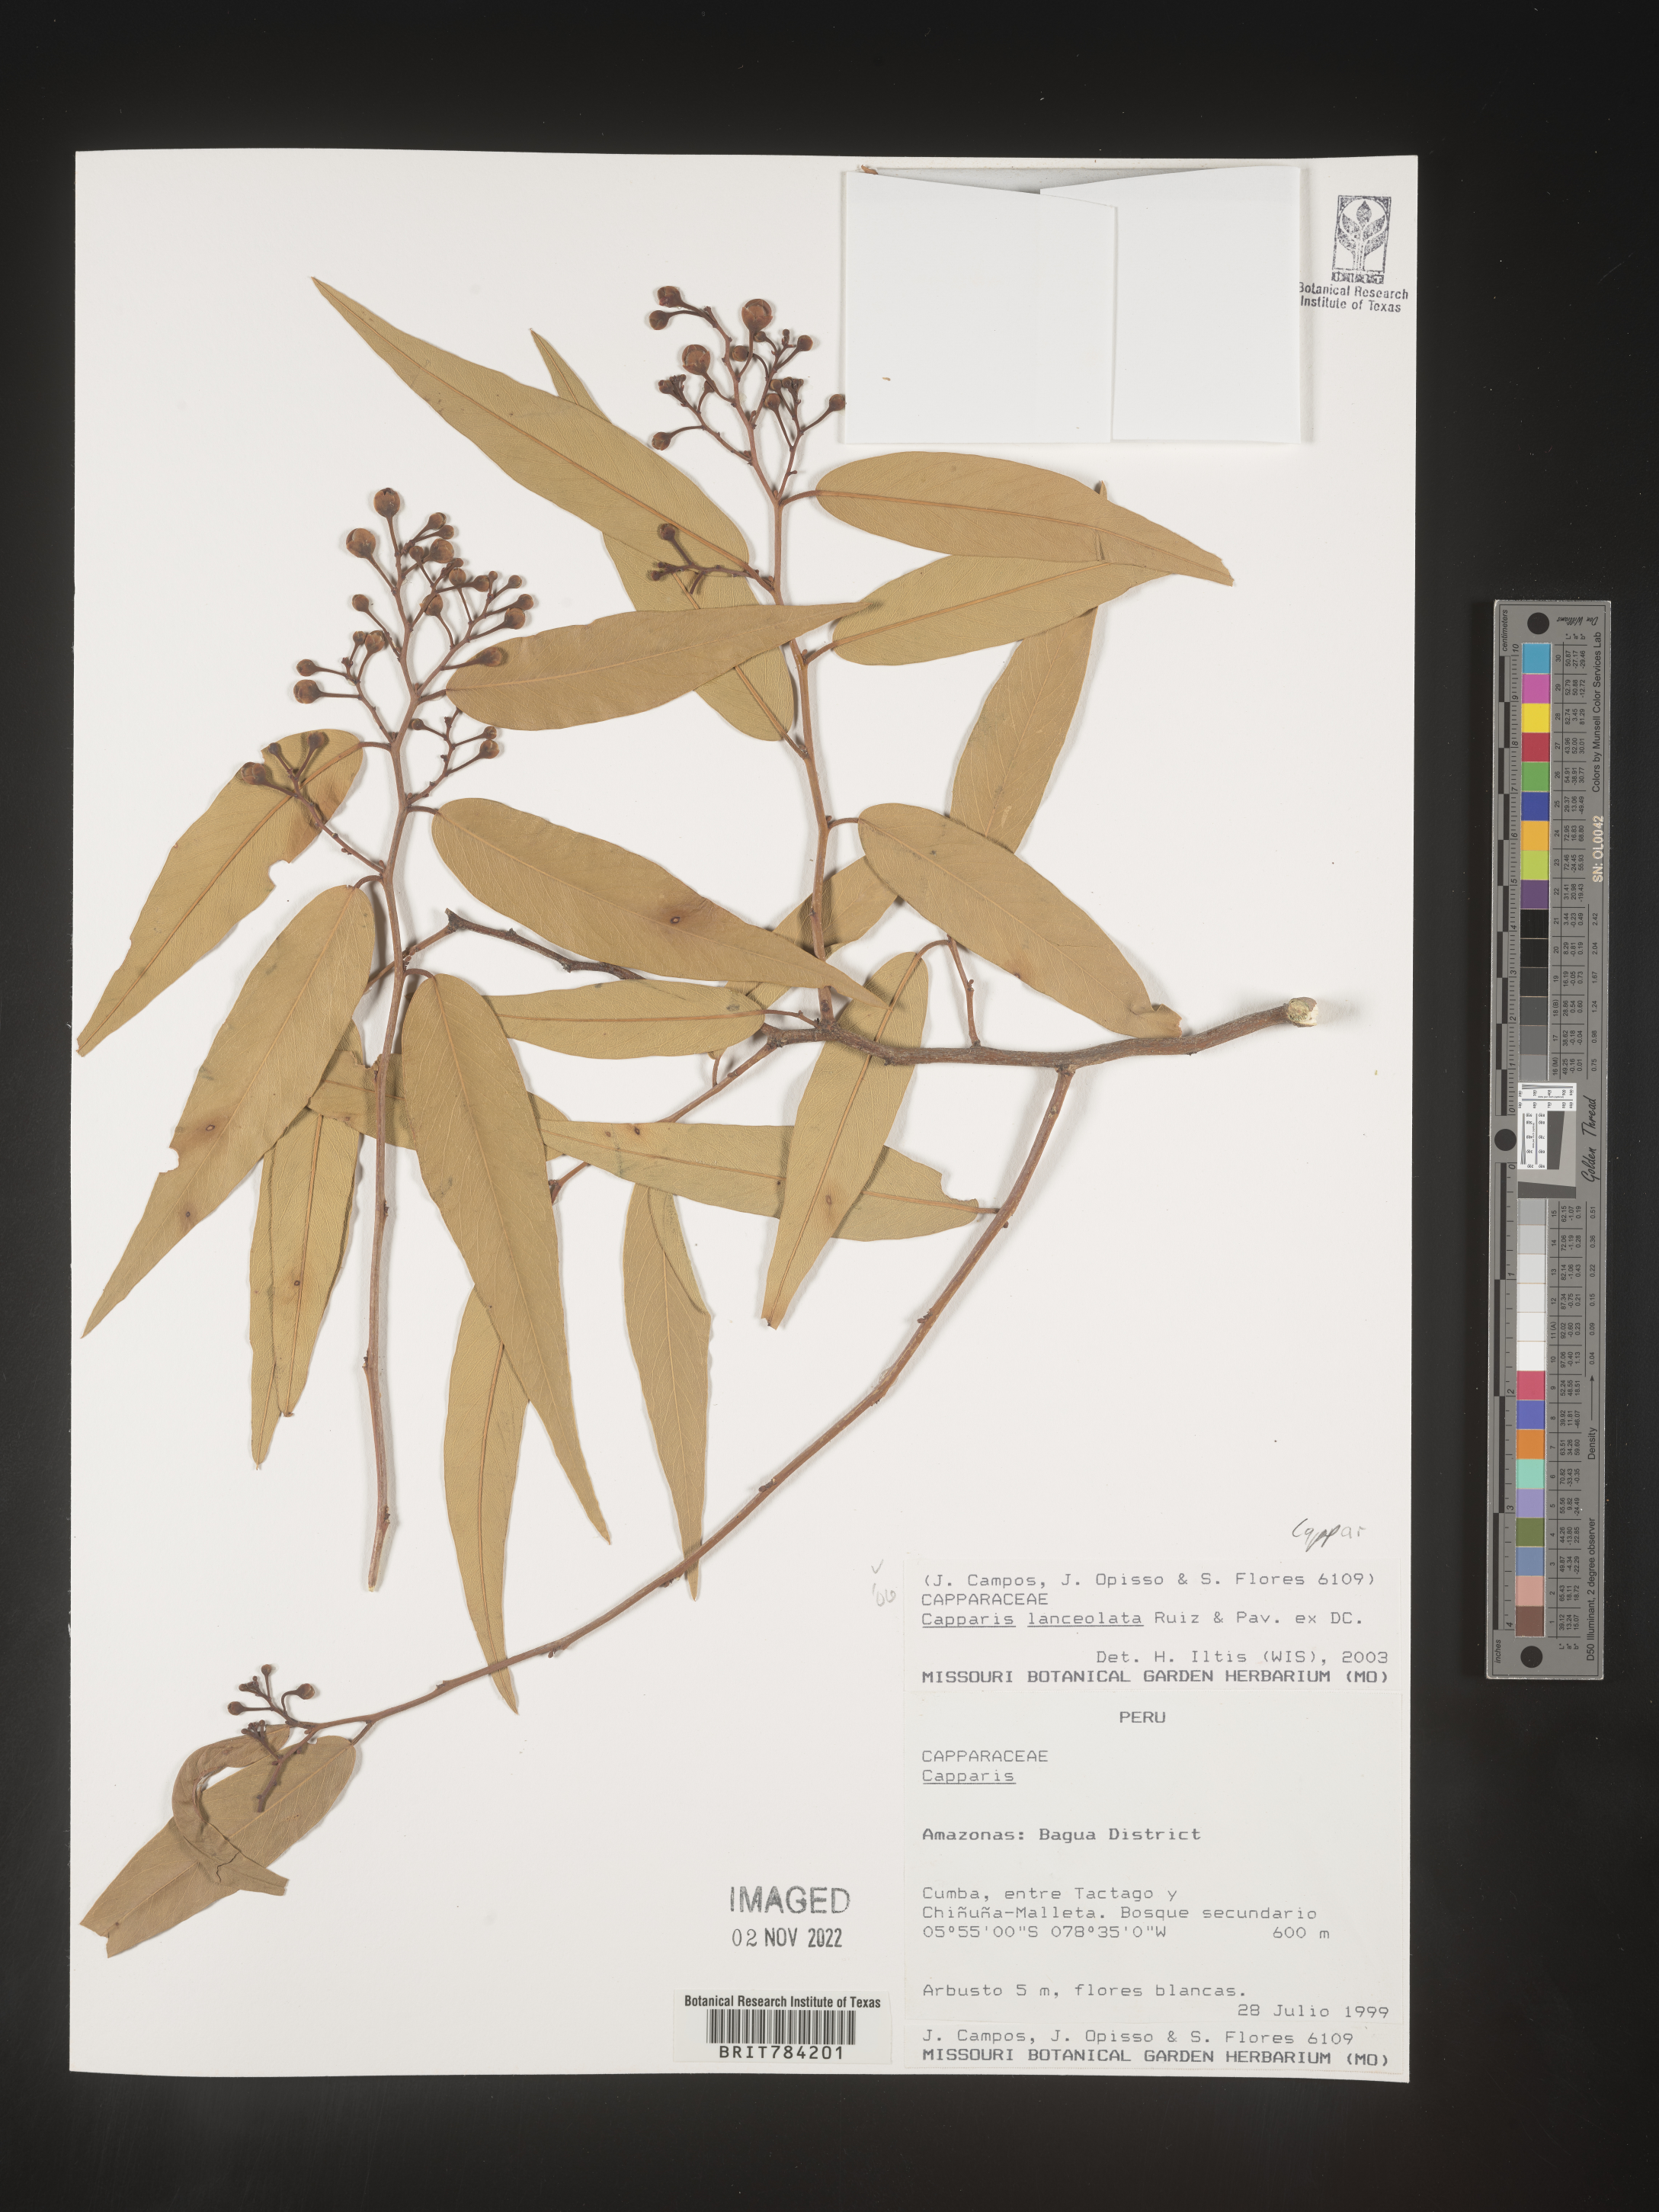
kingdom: Plantae
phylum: Tracheophyta
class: Magnoliopsida
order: Brassicales
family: Capparaceae
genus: Capparis
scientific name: Capparis
